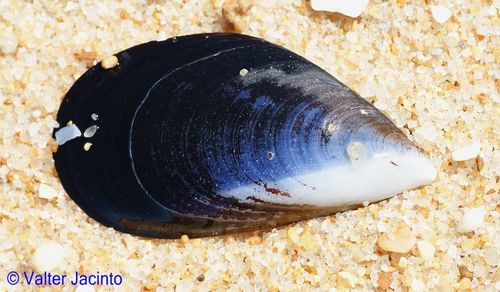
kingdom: Animalia
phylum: Mollusca
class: Bivalvia
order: Mytilida
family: Mytilidae
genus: Mytilus
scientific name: Mytilus galloprovincialis
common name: Mediterranean mussel
